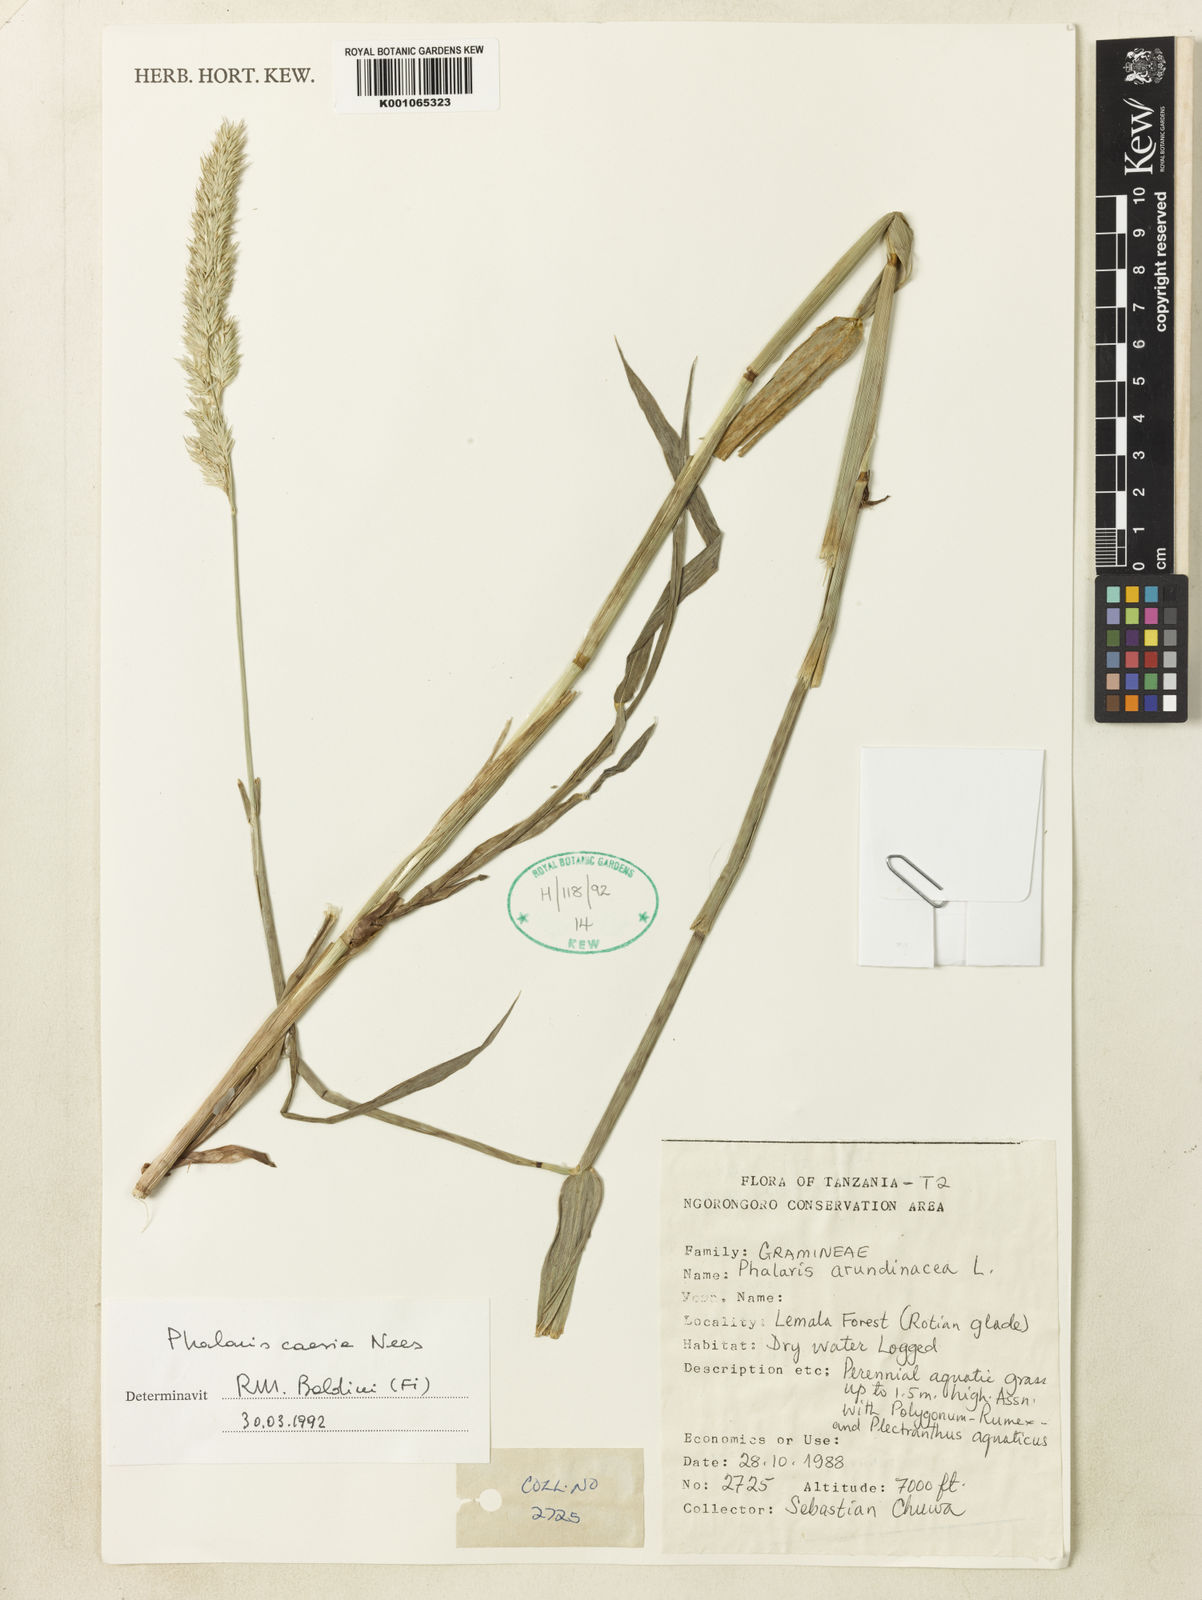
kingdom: Plantae
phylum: Tracheophyta
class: Liliopsida
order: Poales
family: Poaceae
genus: Phalaris
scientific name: Phalaris arundinacea
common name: Reed canary-grass
